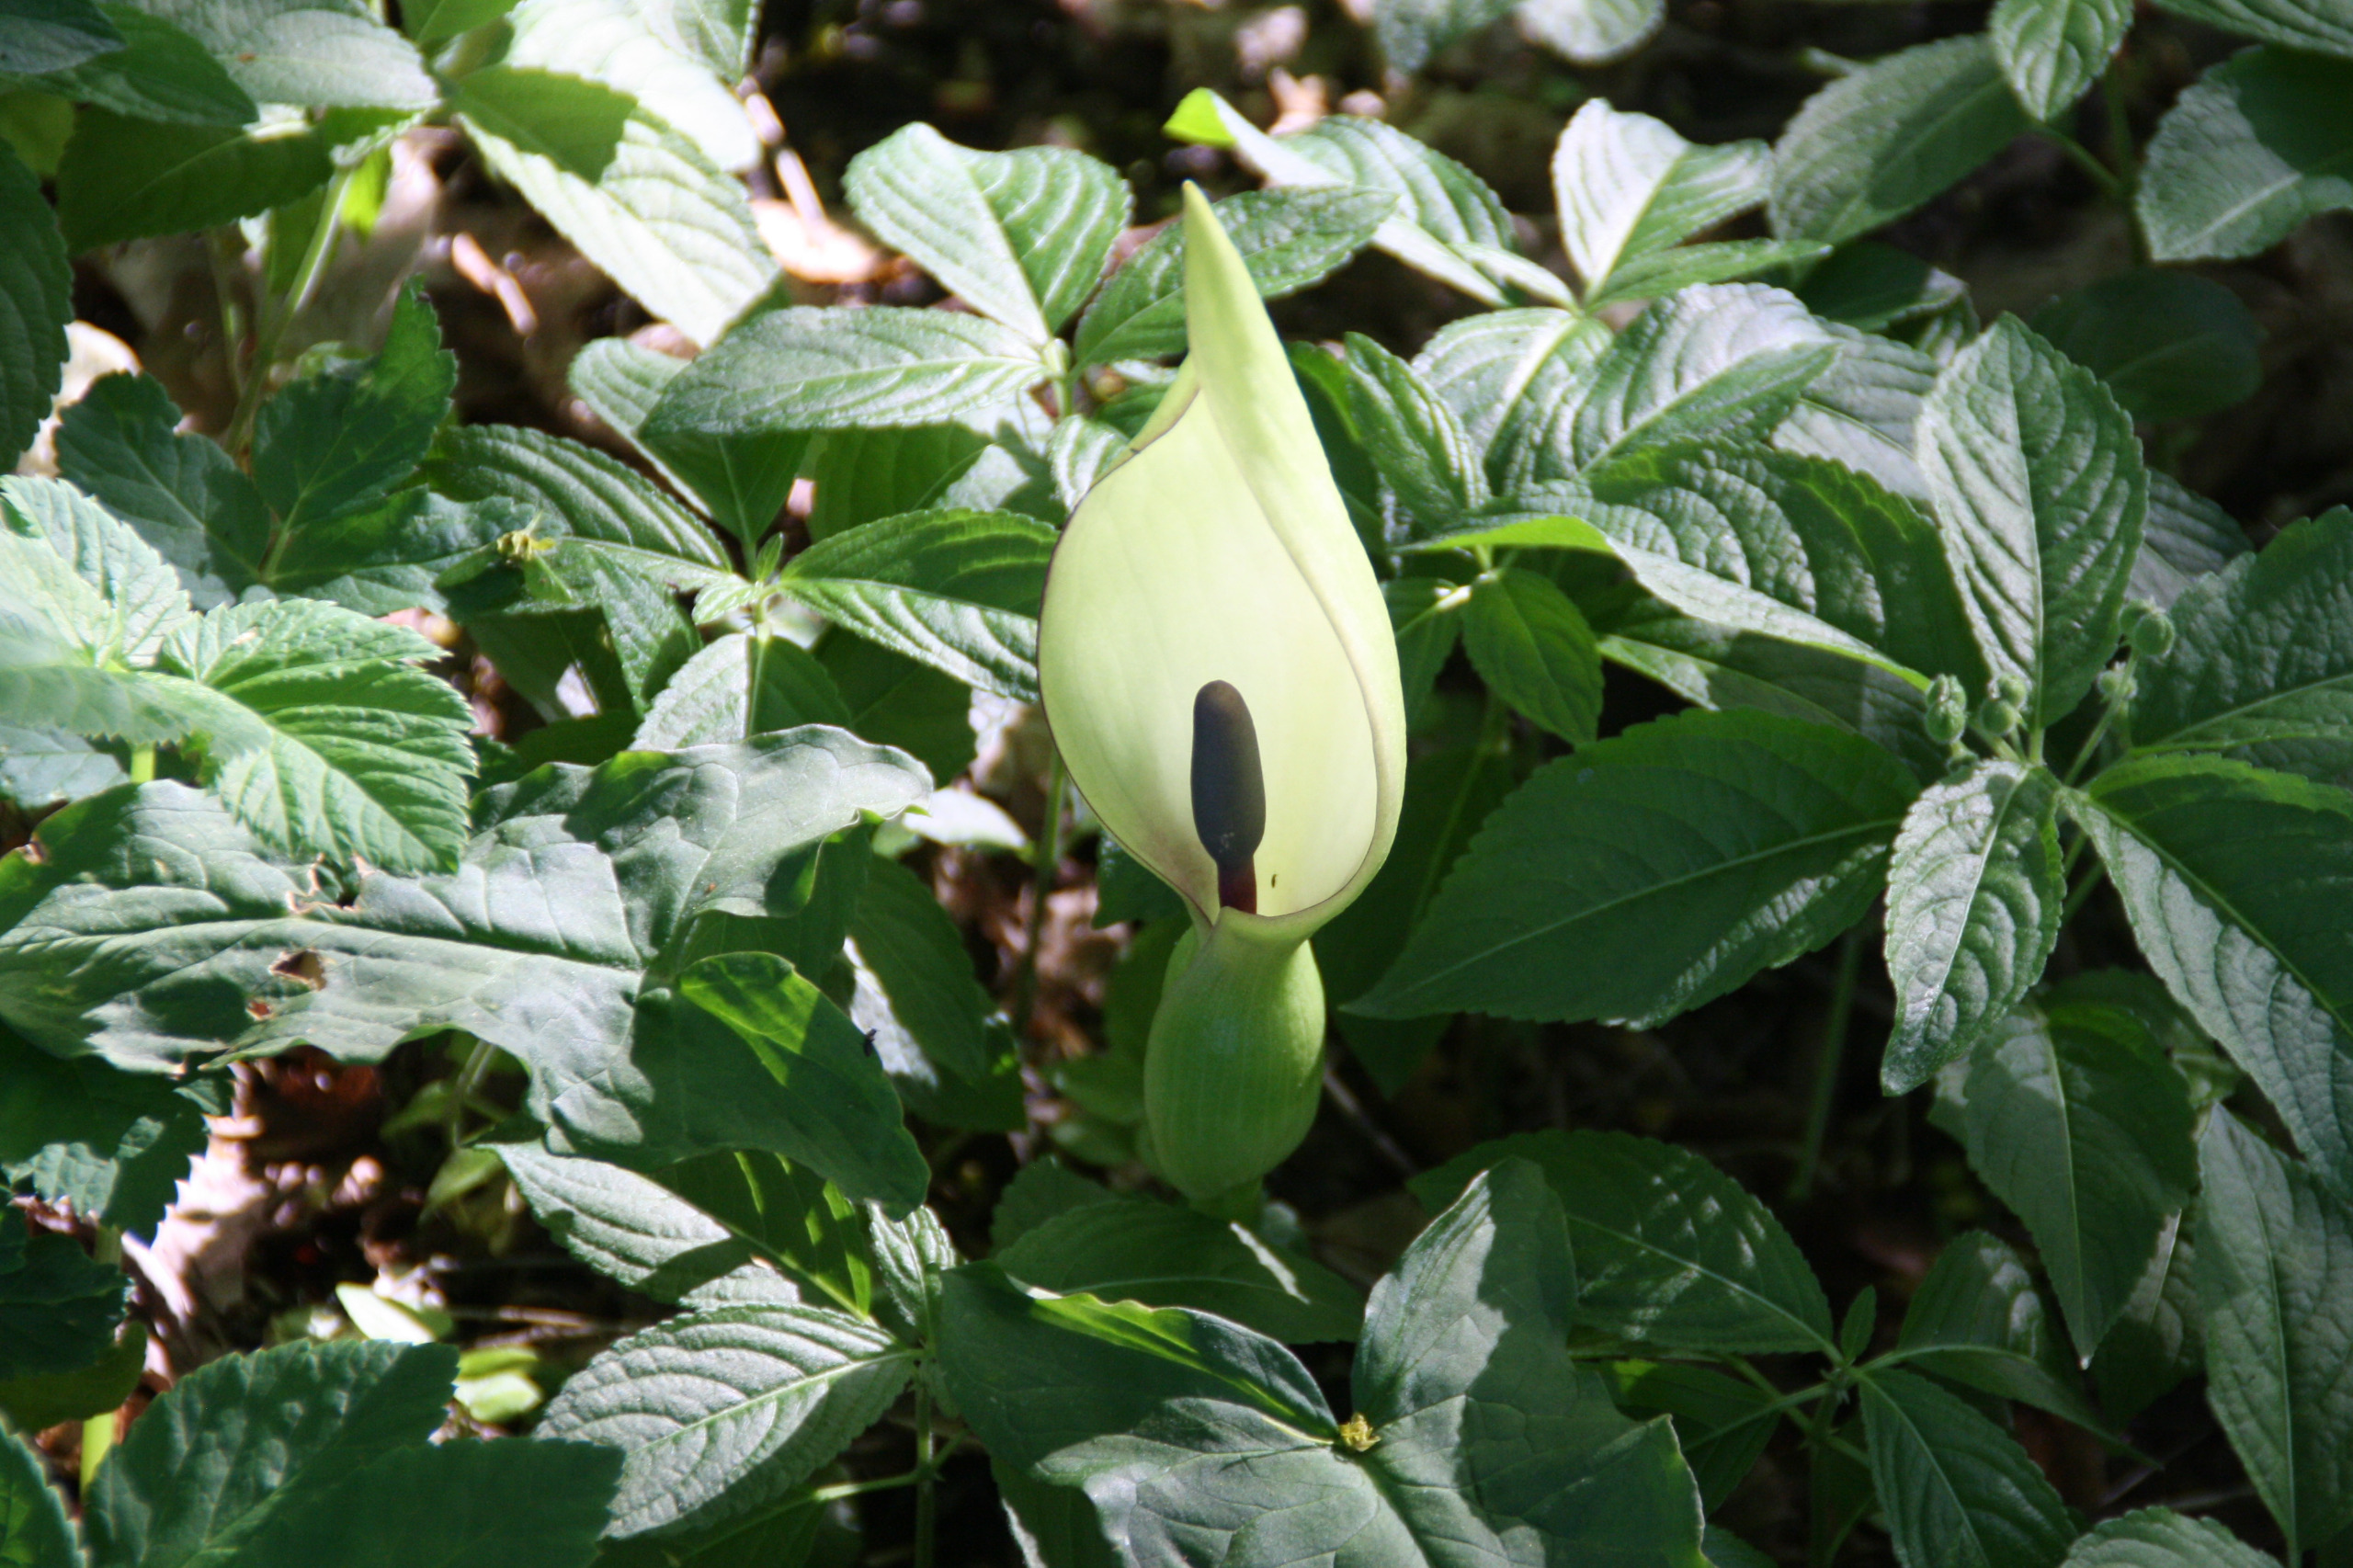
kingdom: Plantae
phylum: Tracheophyta
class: Liliopsida
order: Alismatales
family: Araceae
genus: Arum
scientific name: Arum maculatum
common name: Plettet arum
